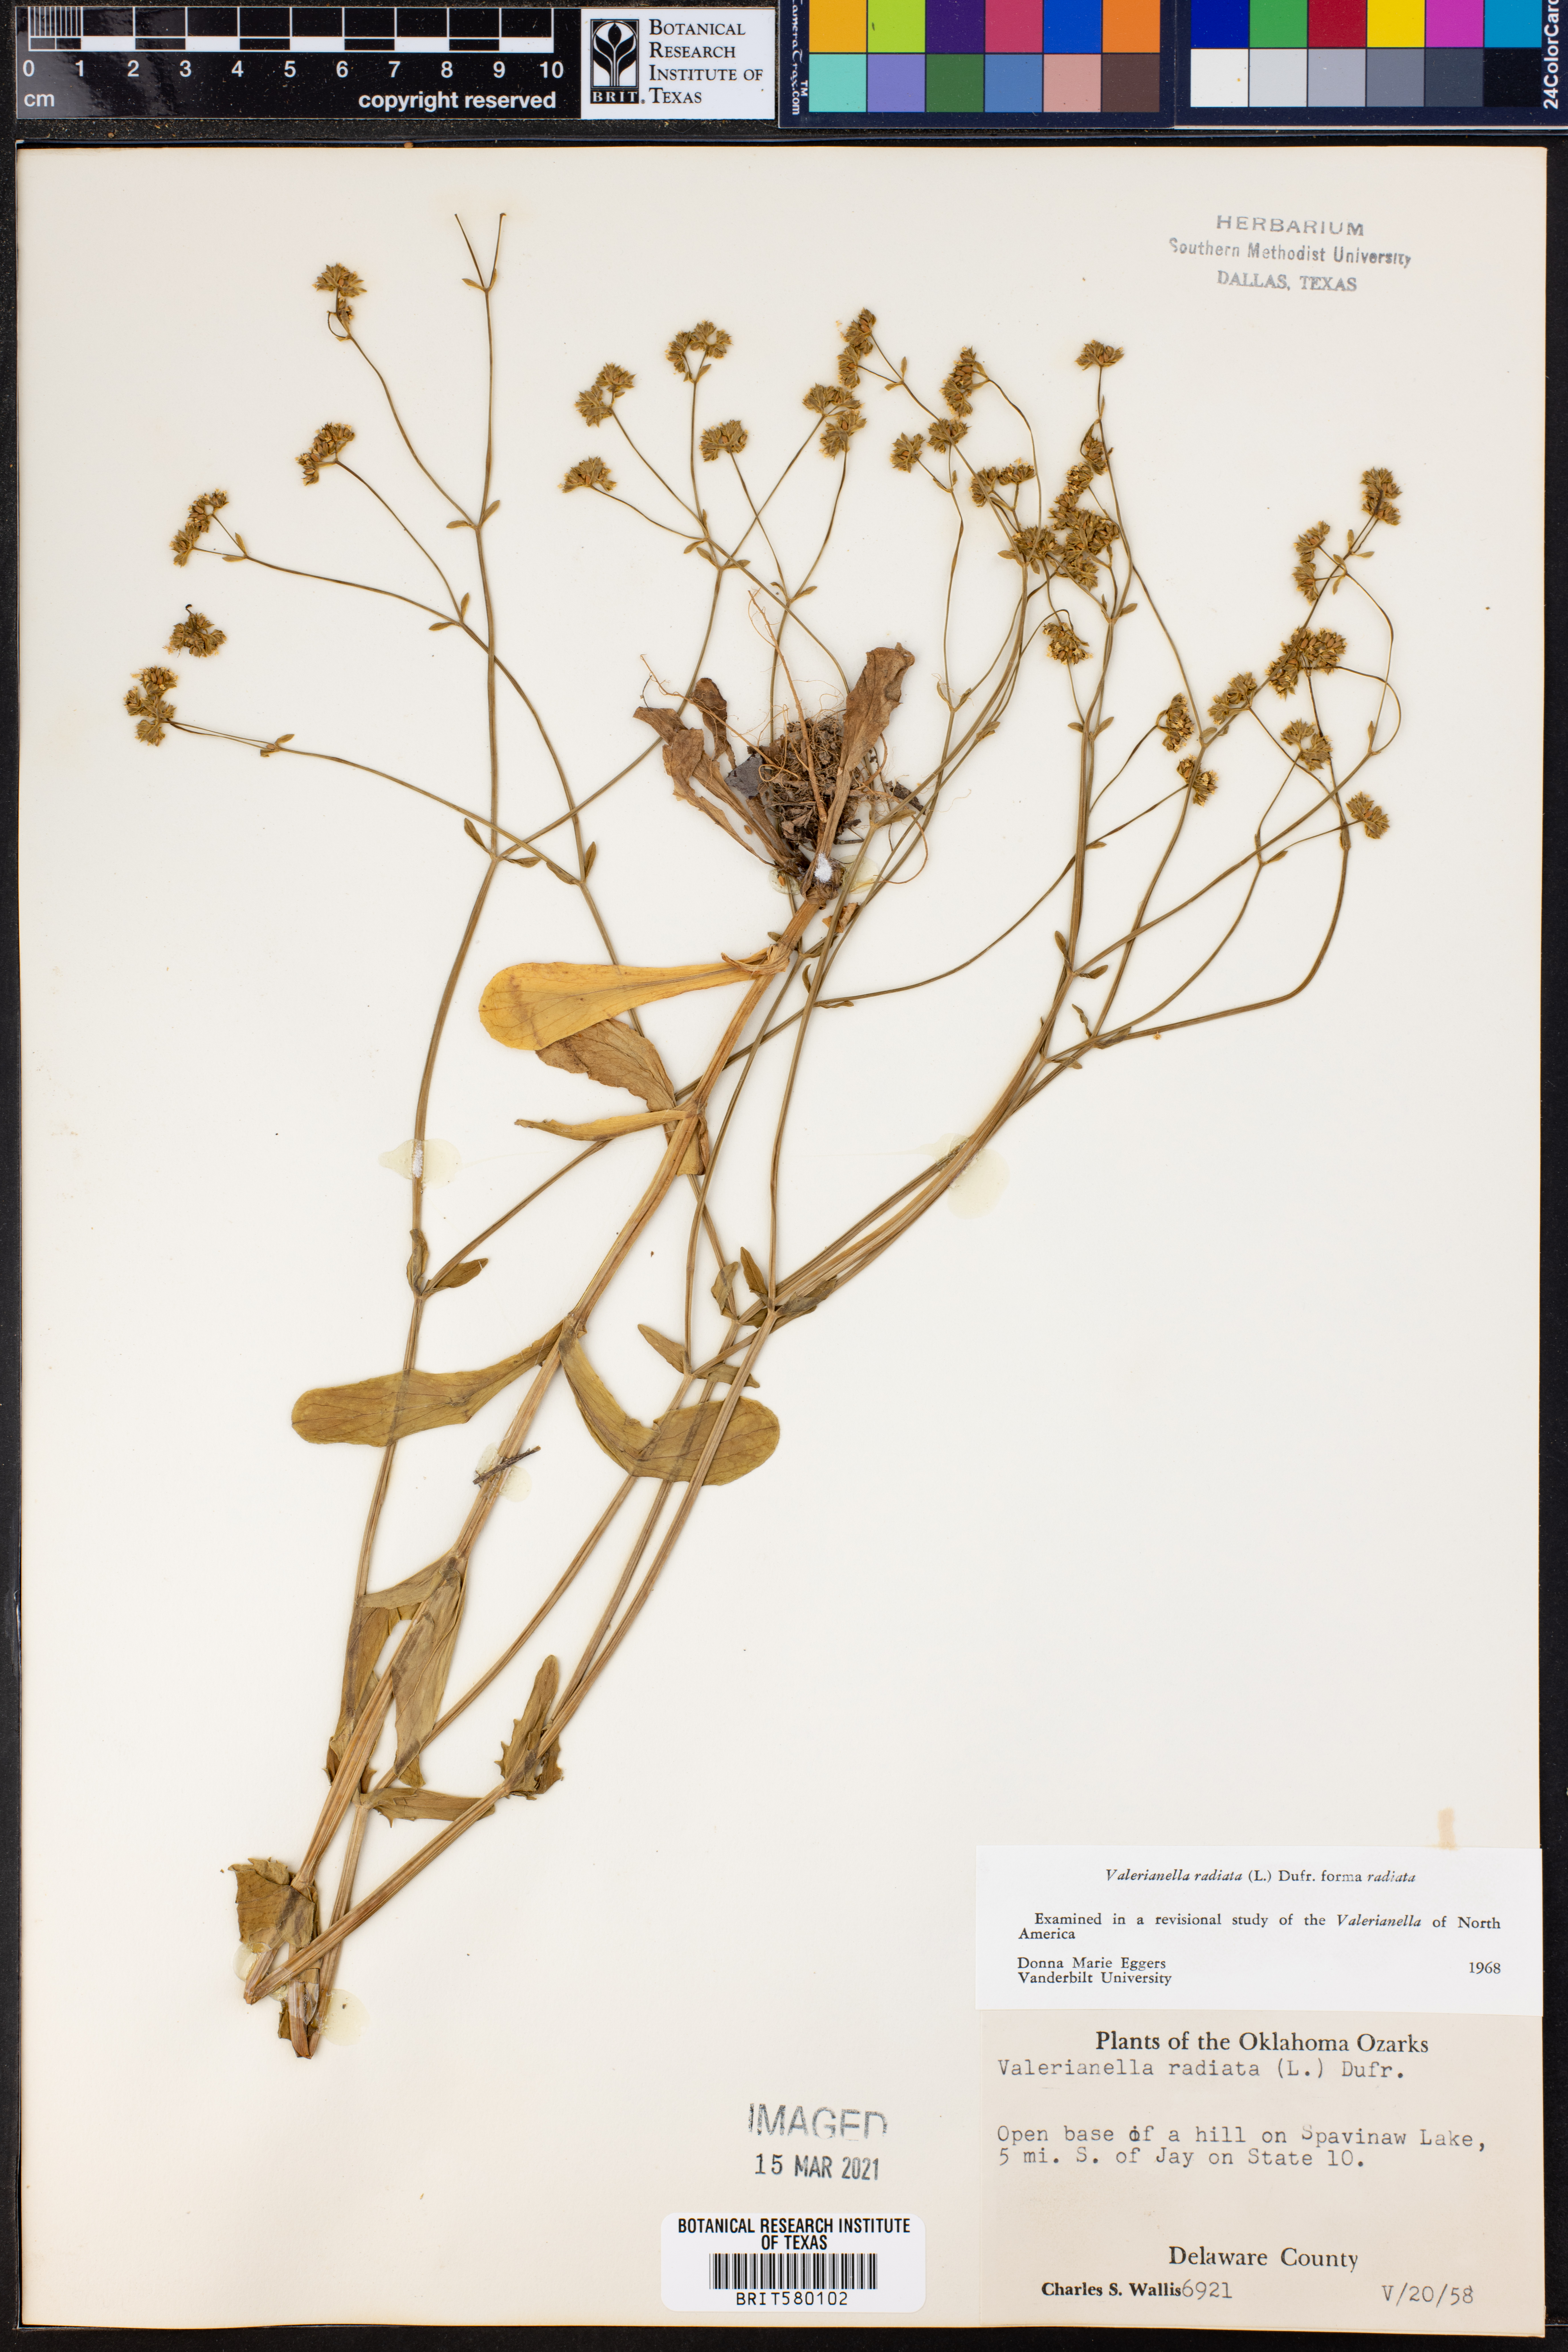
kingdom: Plantae
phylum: Tracheophyta
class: Magnoliopsida
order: Dipsacales
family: Caprifoliaceae
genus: Valerianella
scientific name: Valerianella radiata
